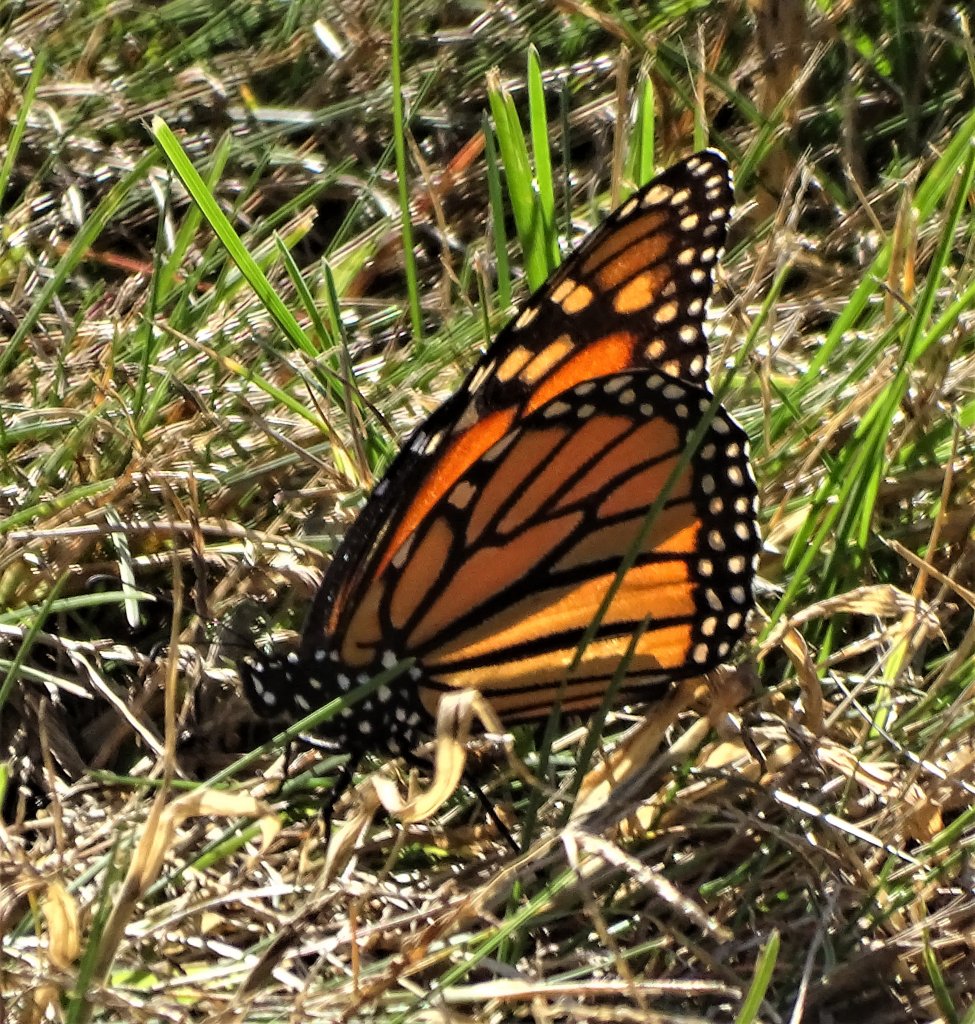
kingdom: Animalia
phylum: Arthropoda
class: Insecta
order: Lepidoptera
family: Nymphalidae
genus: Danaus
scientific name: Danaus plexippus
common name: Monarch
